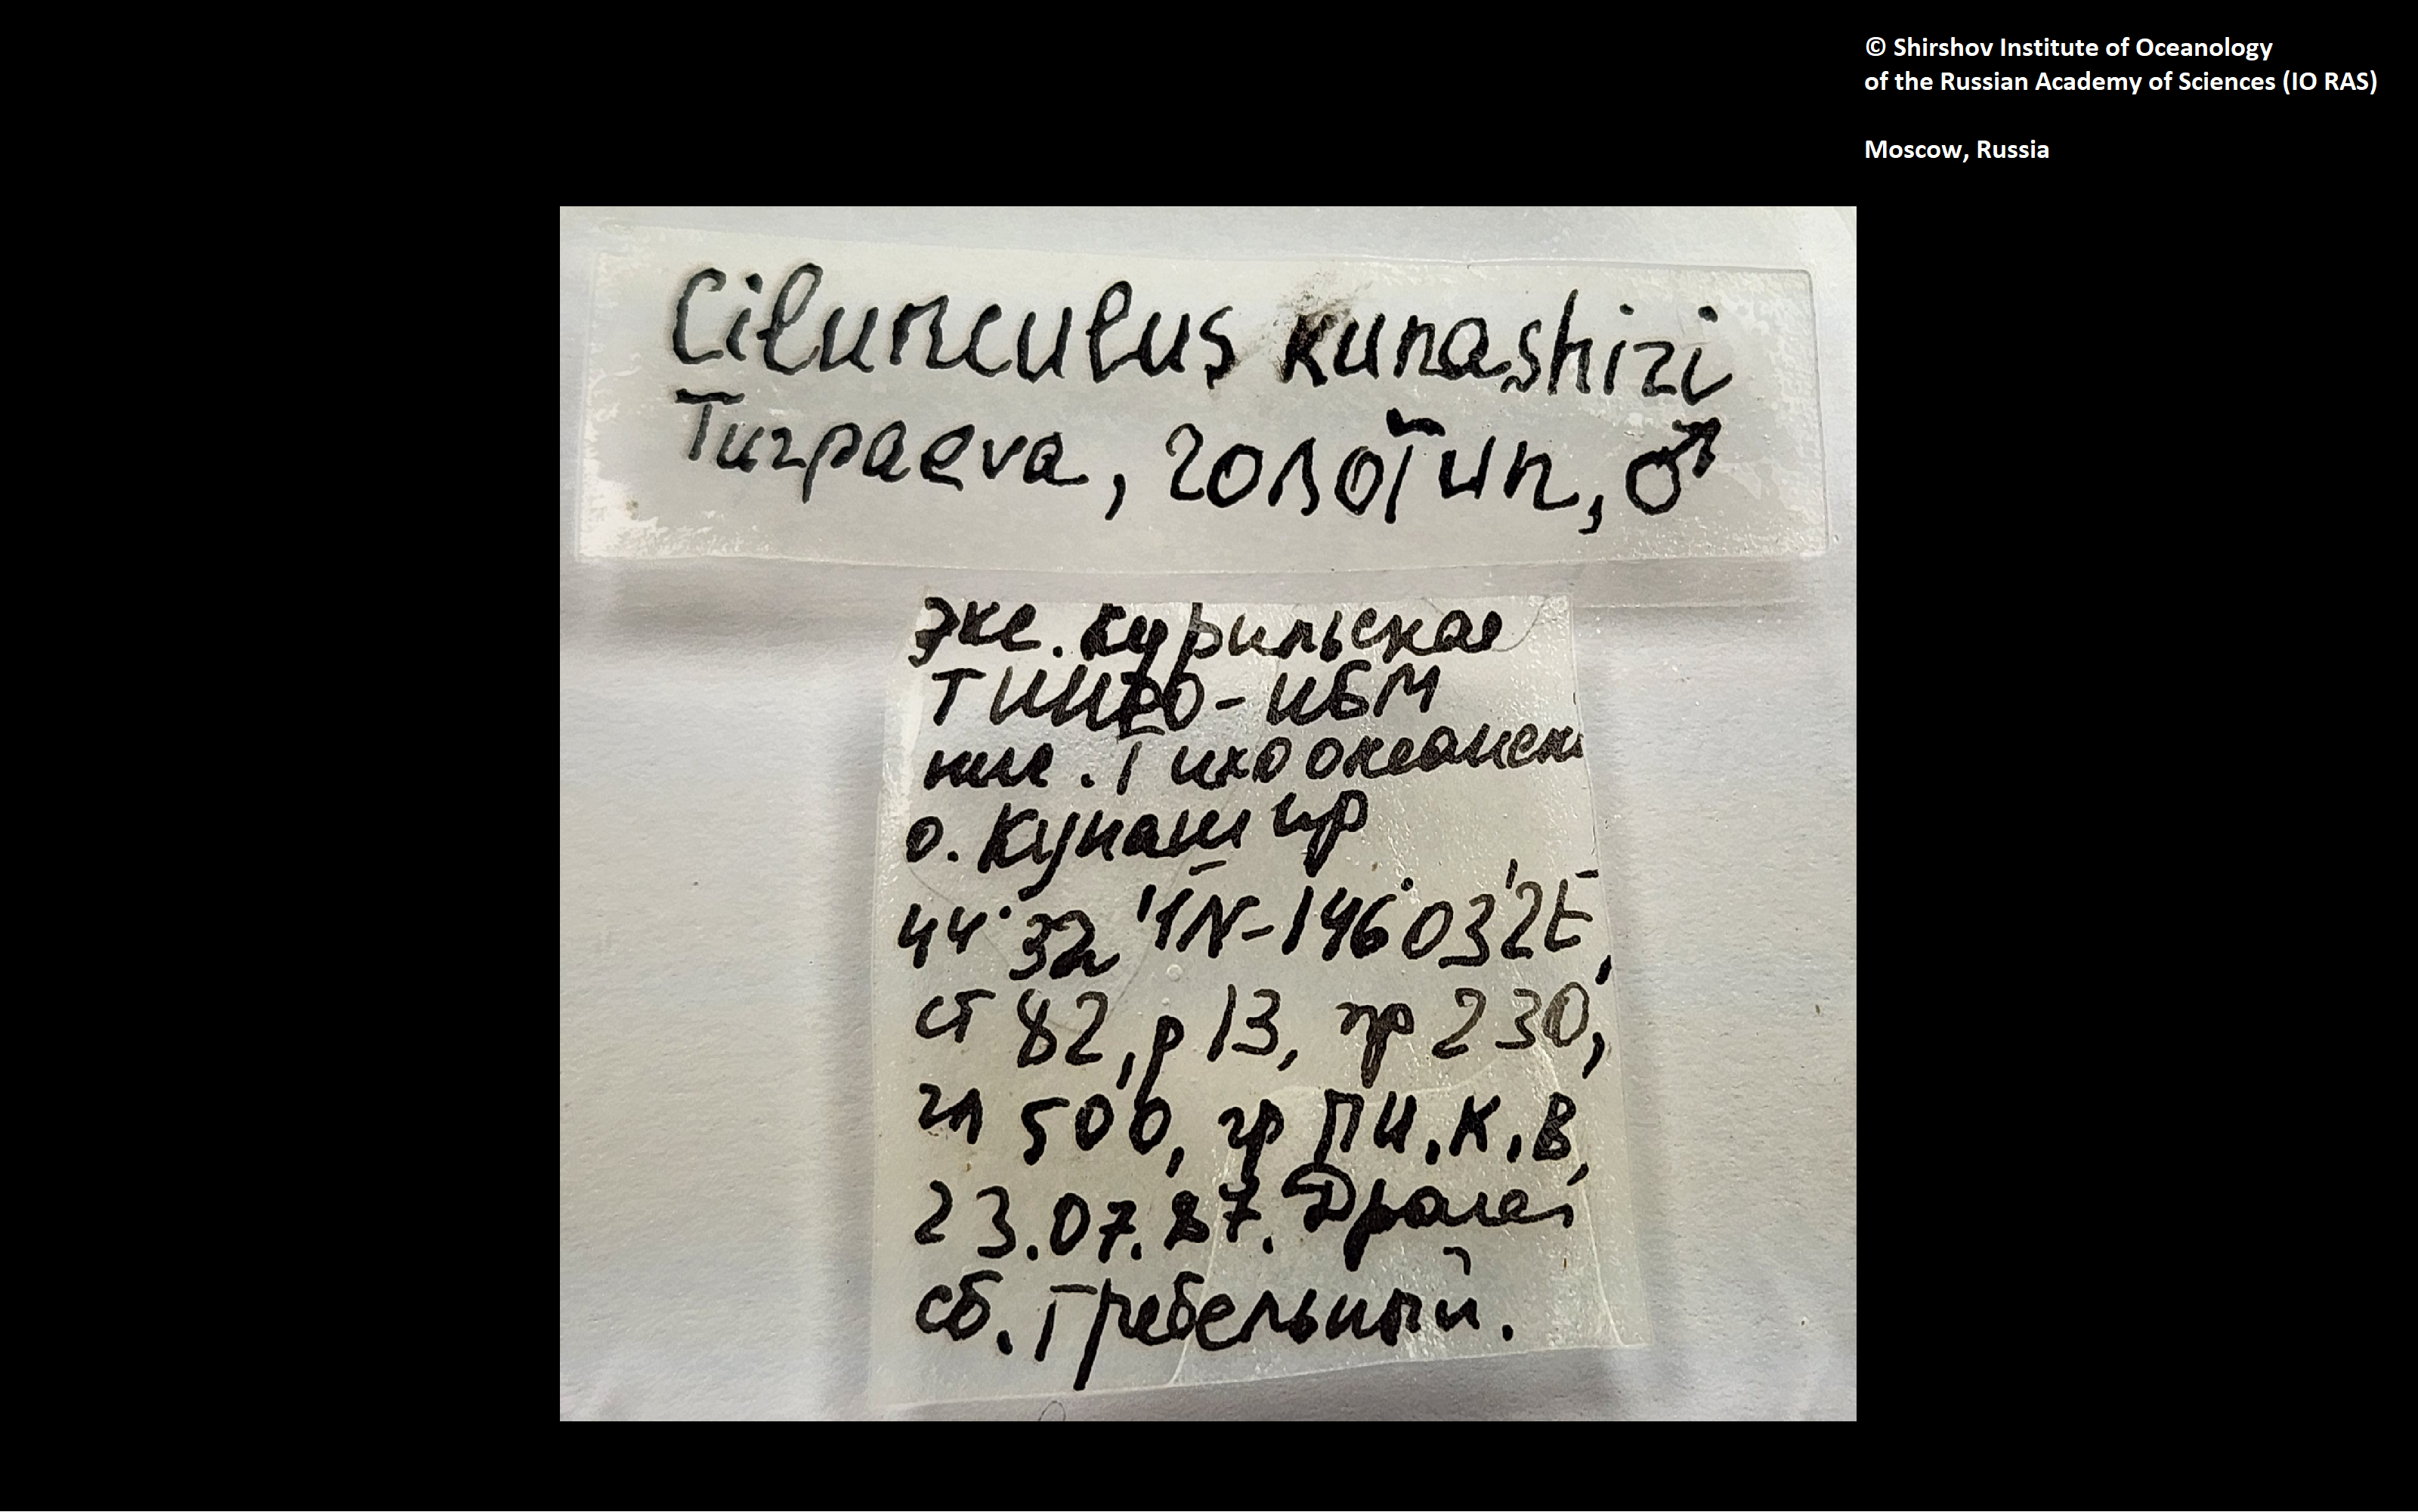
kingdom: Animalia
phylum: Arthropoda
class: Pycnogonida
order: Pantopoda
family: Ammotheidae
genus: Cilunculus
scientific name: Cilunculus
